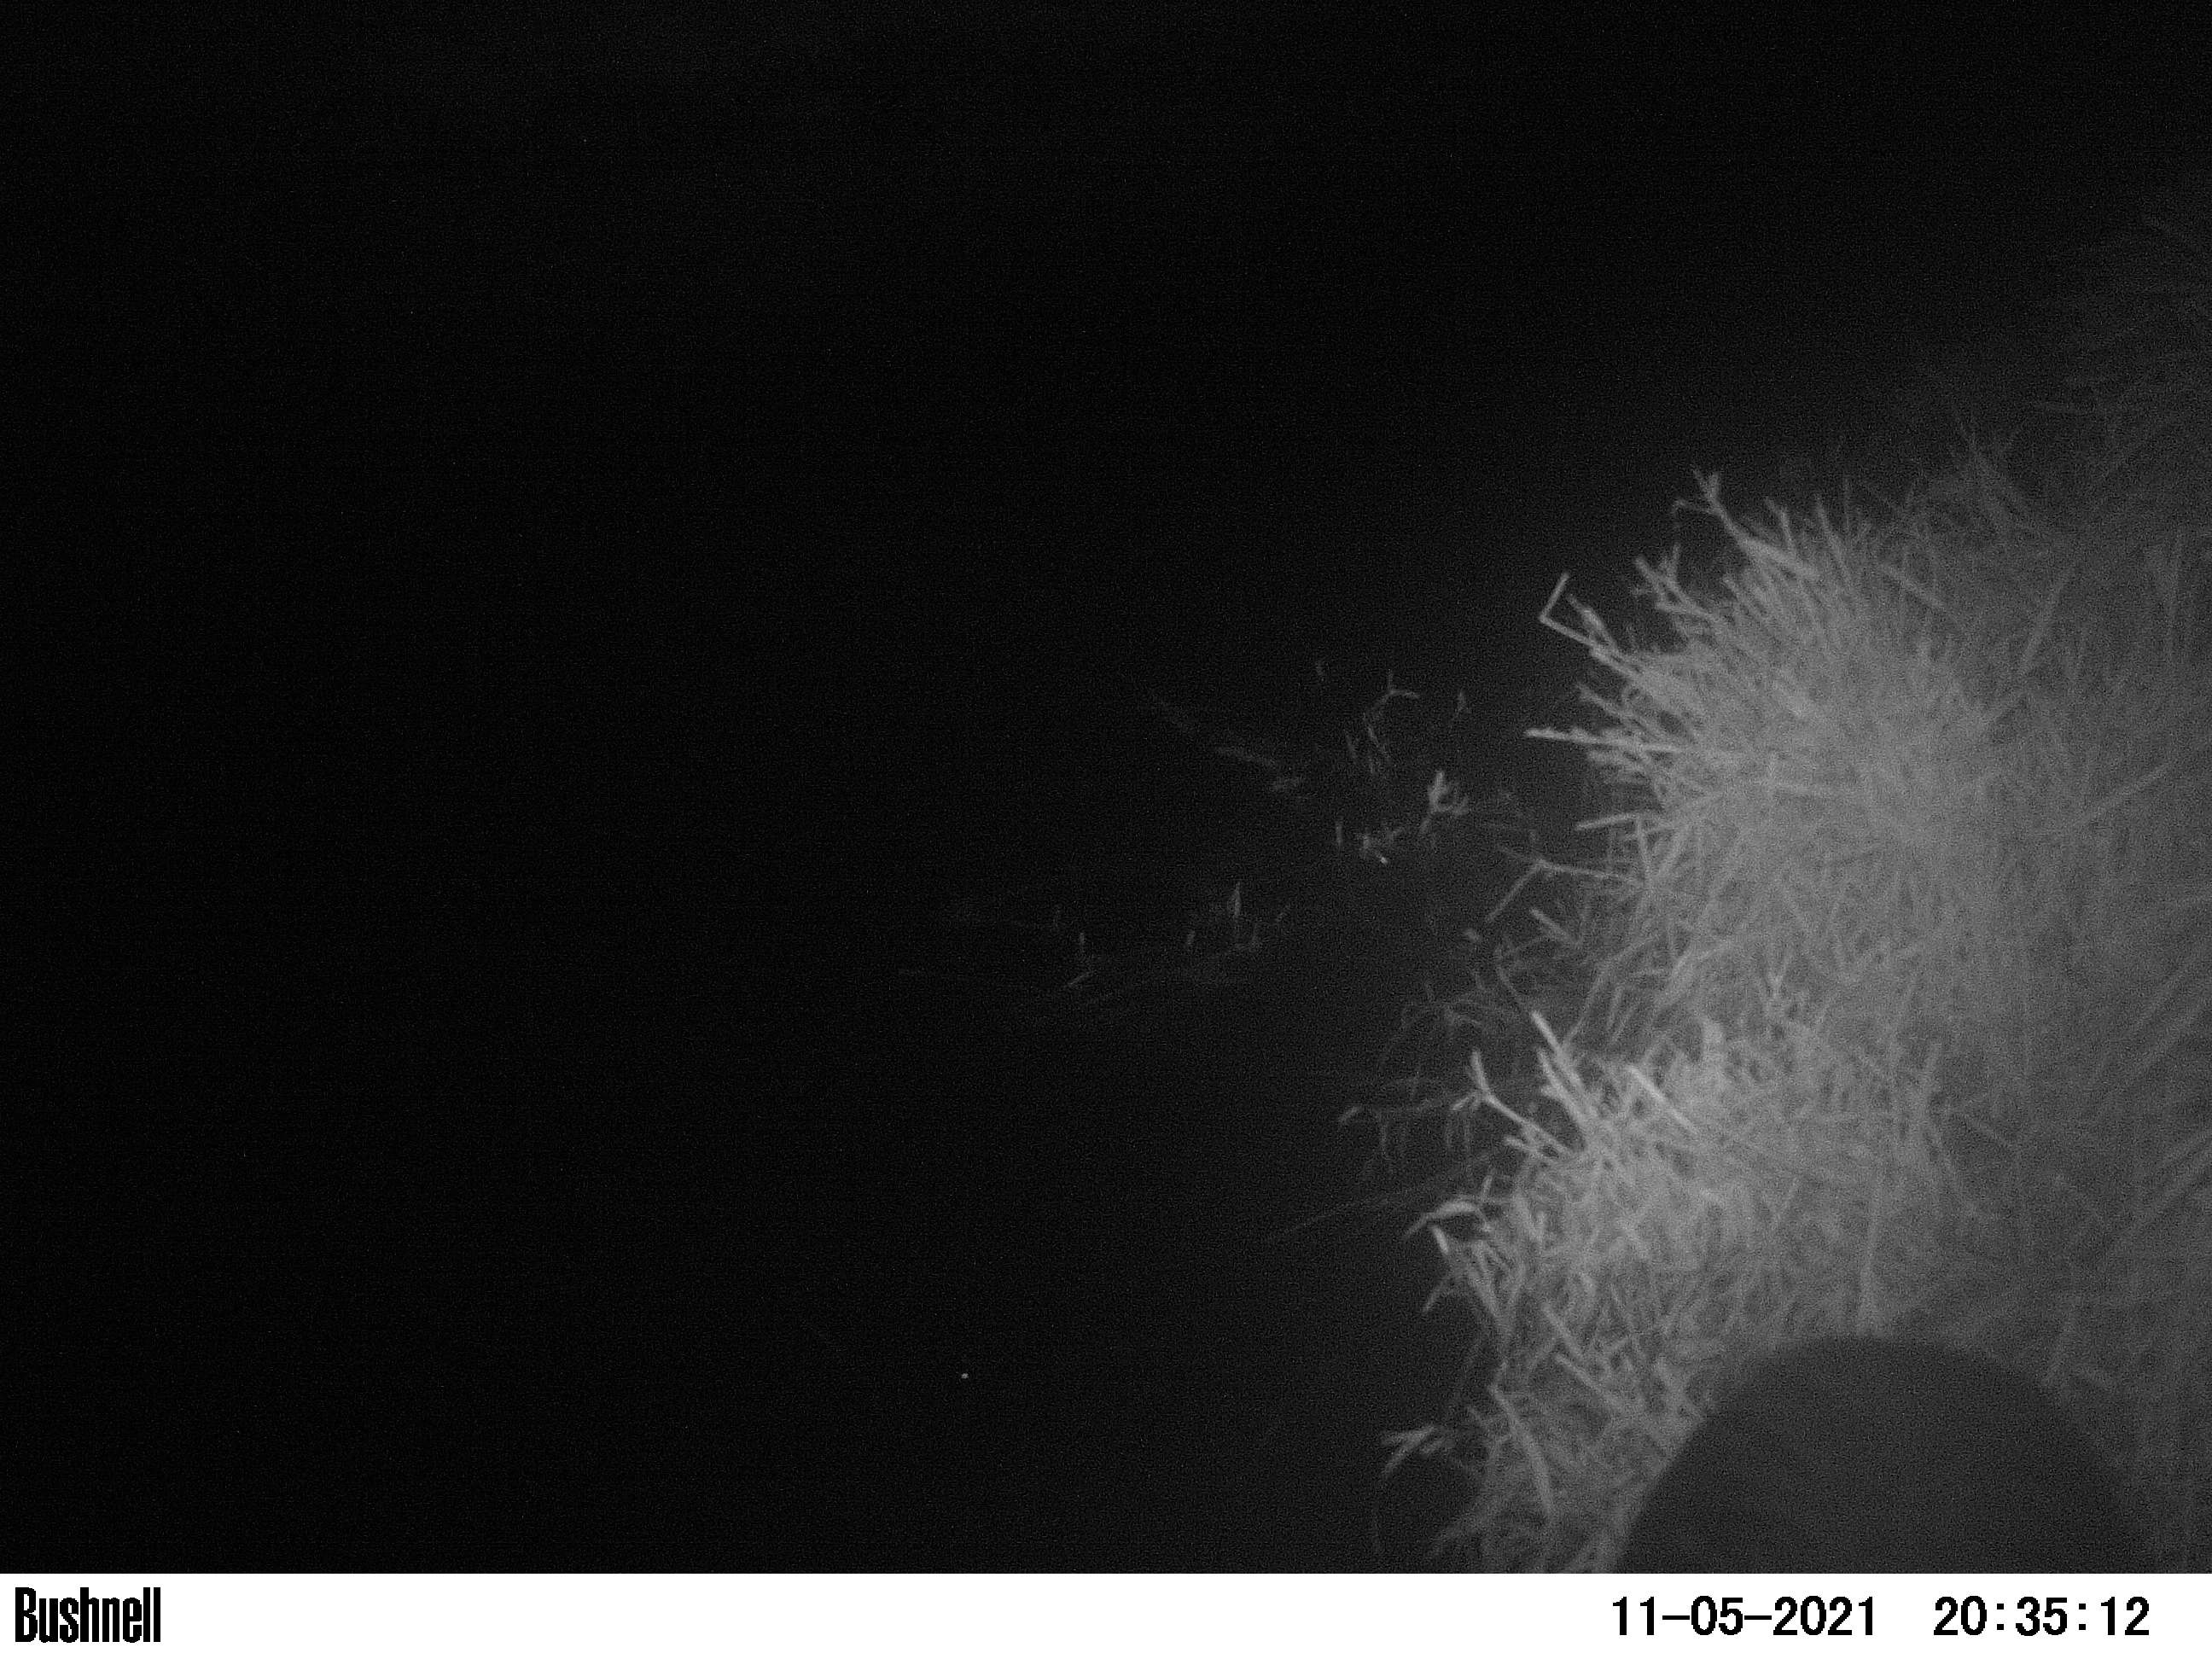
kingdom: Animalia
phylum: Chordata
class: Mammalia
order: Rodentia
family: Myocastoridae
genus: Myocastor
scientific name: Myocastor coypus
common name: Coypu
